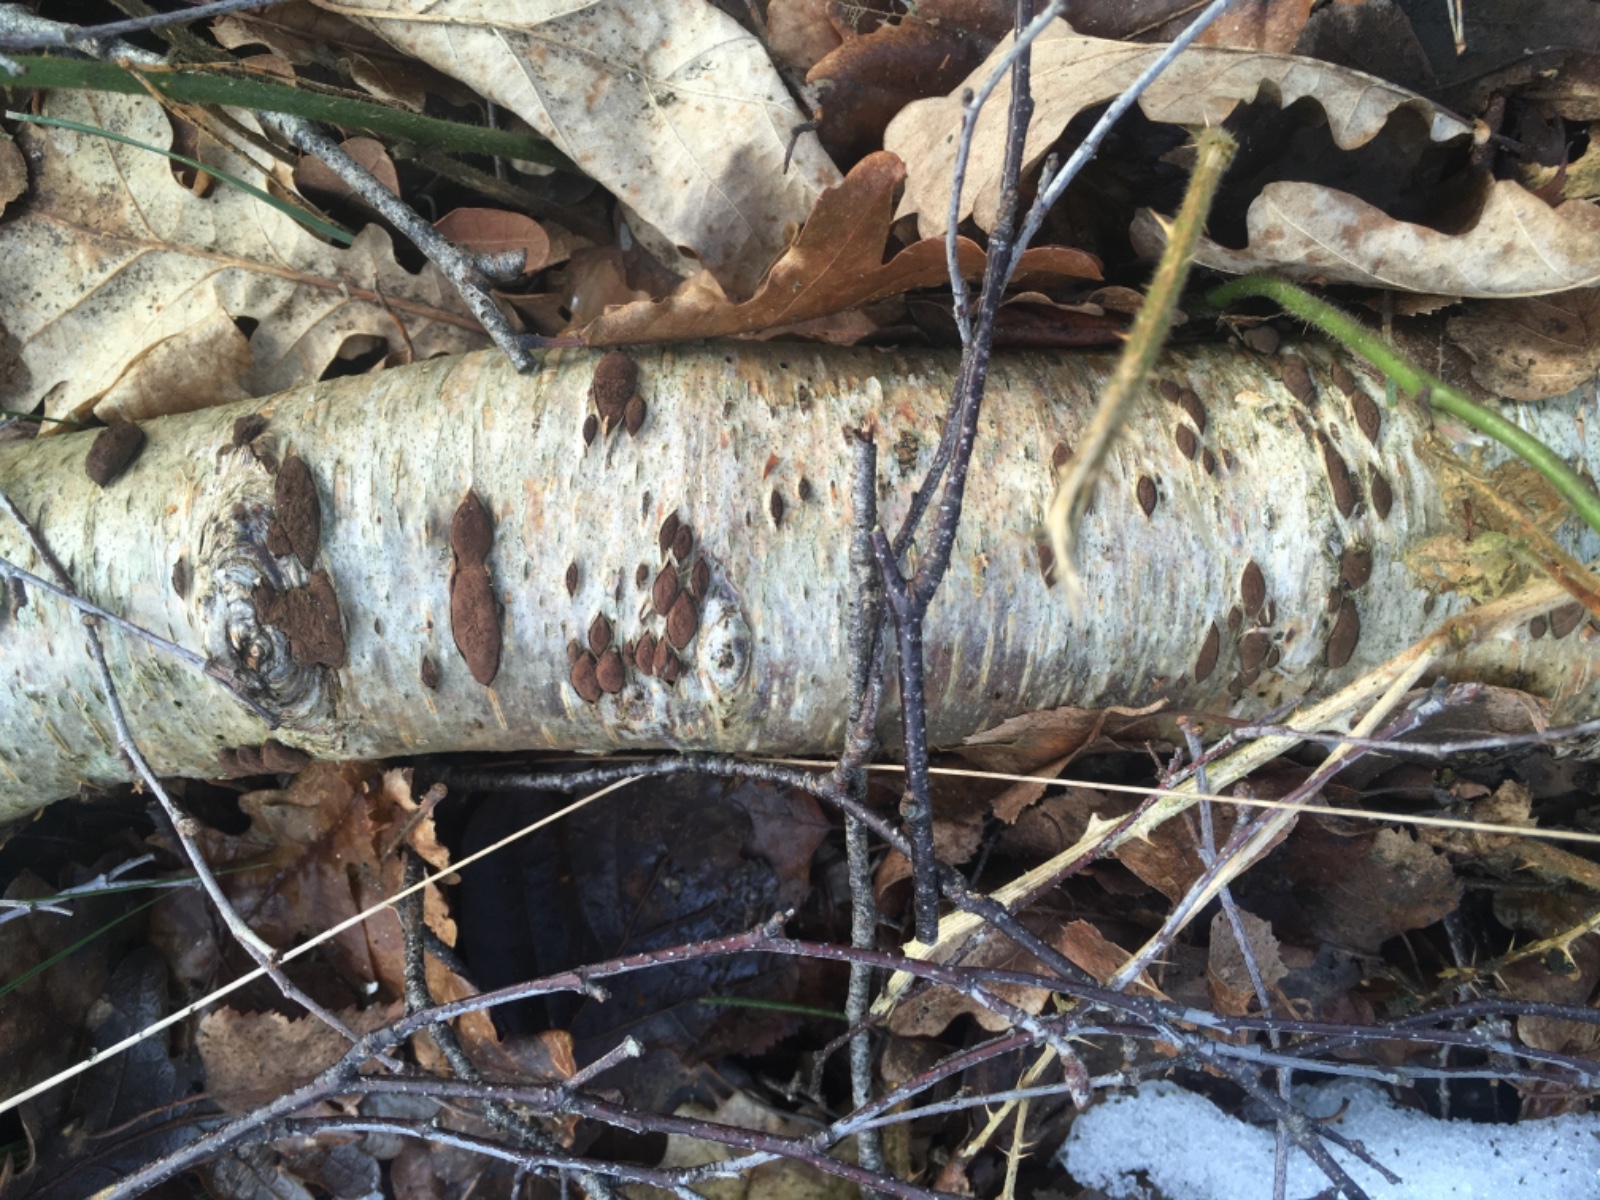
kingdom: Fungi
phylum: Ascomycota
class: Sordariomycetes
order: Xylariales
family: Hypoxylaceae
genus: Jackrogersella
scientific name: Jackrogersella multiformis
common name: foranderlig kulbær
